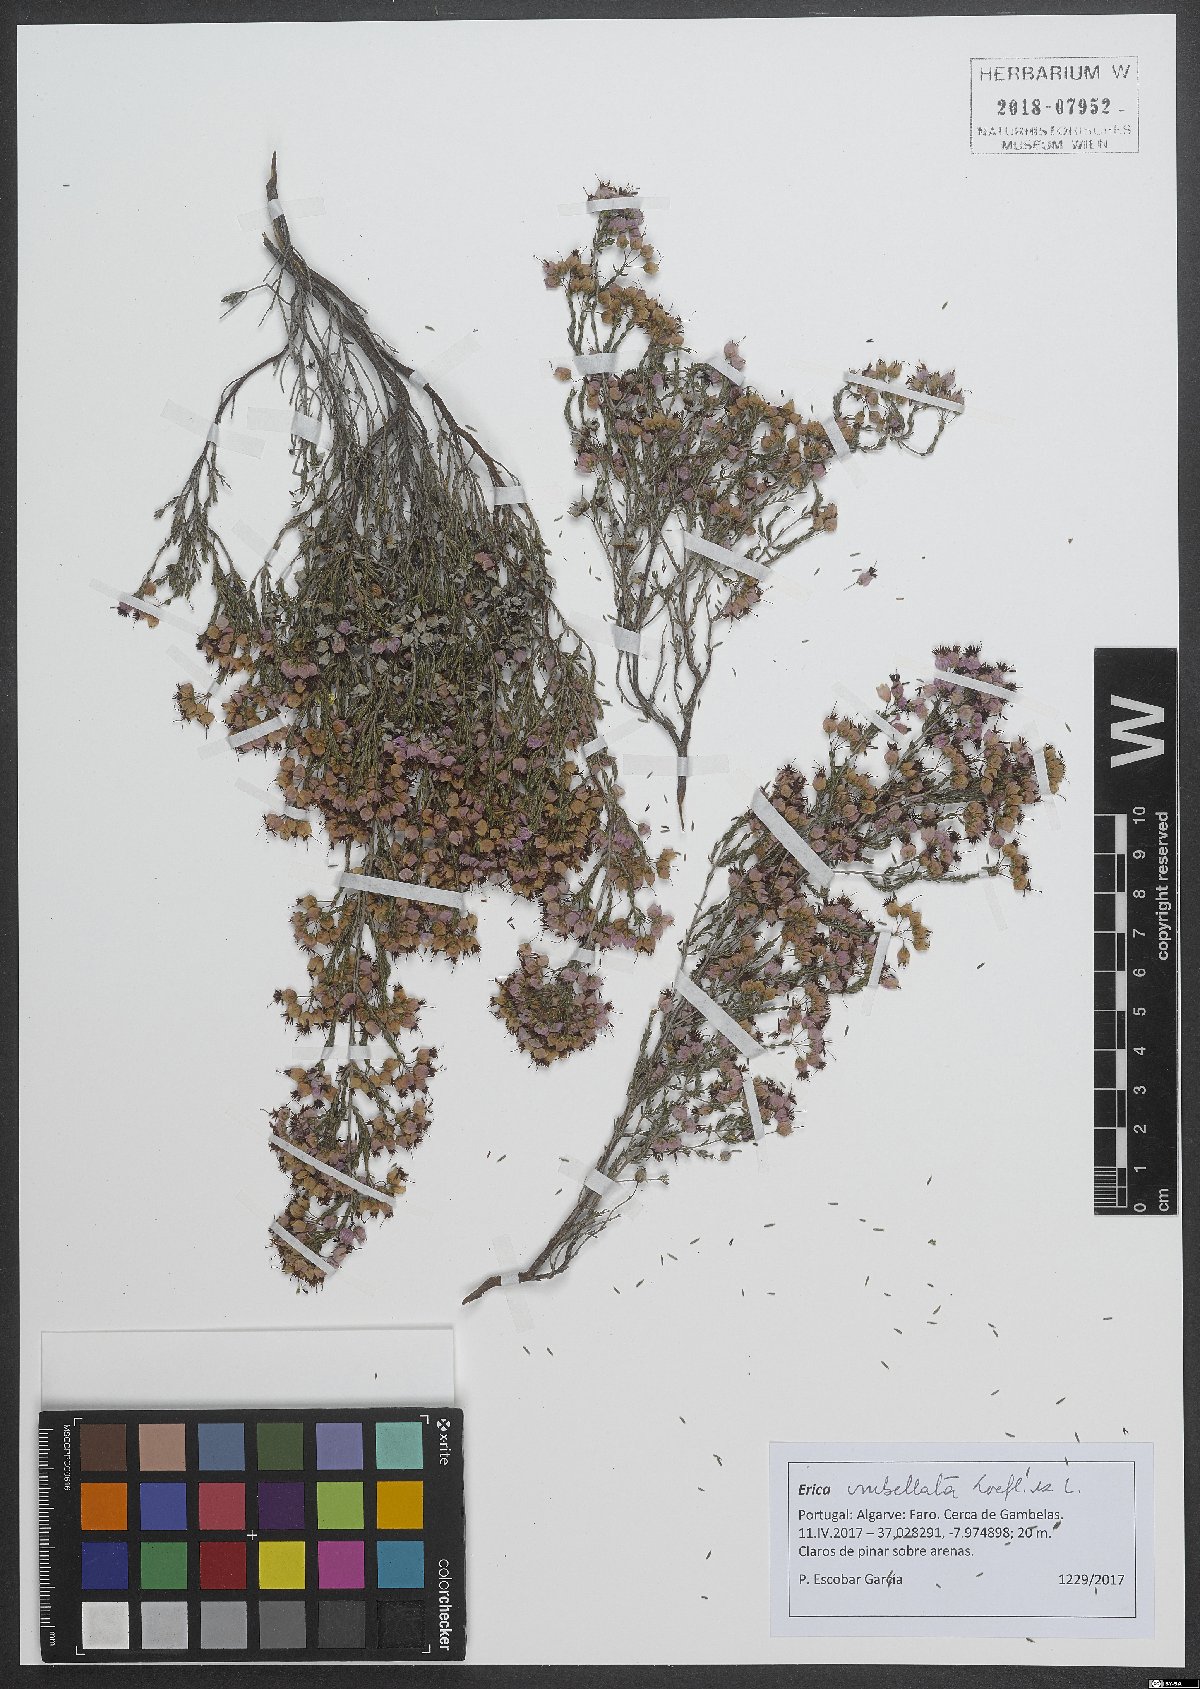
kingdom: Plantae
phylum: Tracheophyta
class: Magnoliopsida
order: Ericales
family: Ericaceae
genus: Erica
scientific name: Erica umbellata
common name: Dwarf spanish heath
